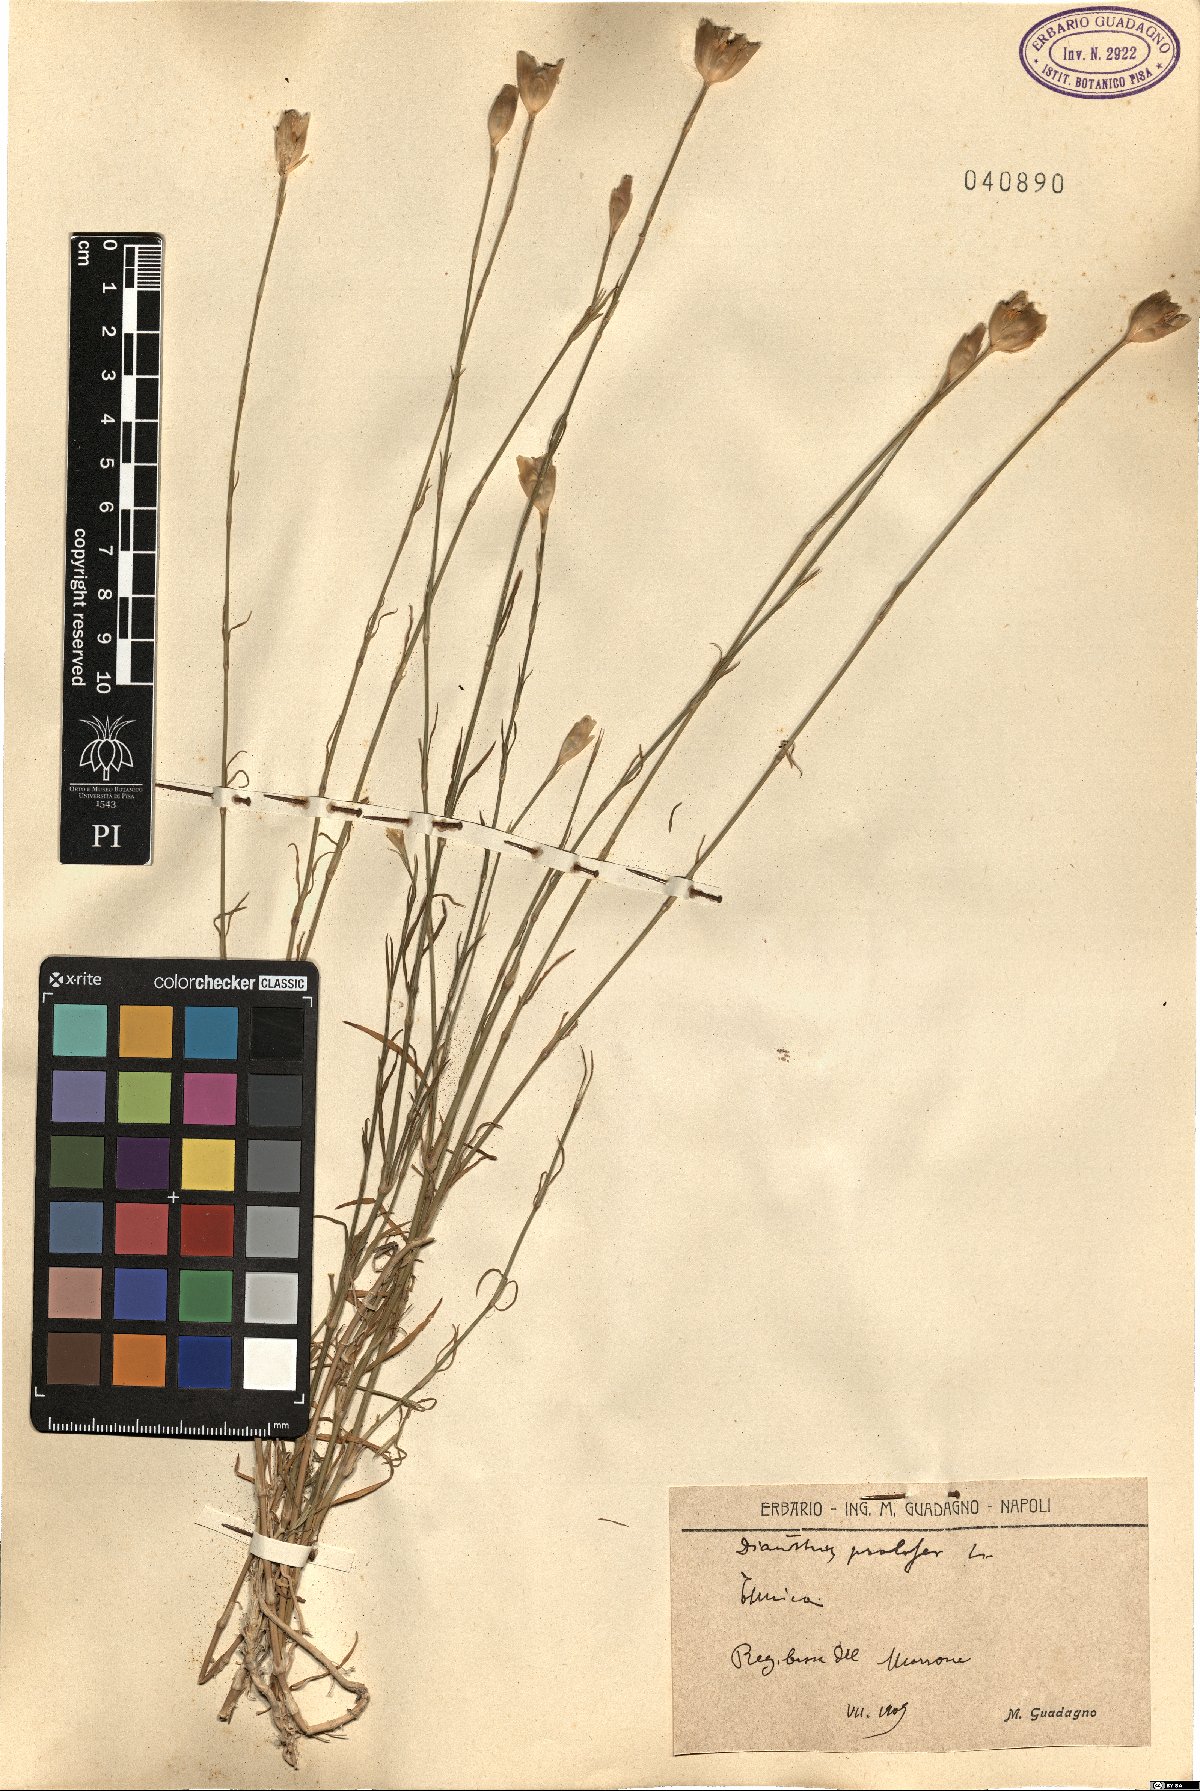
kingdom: Plantae
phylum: Tracheophyta
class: Magnoliopsida
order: Caryophyllales
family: Caryophyllaceae
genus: Petrorhagia
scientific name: Petrorhagia prolifera
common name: Proliferous pink
